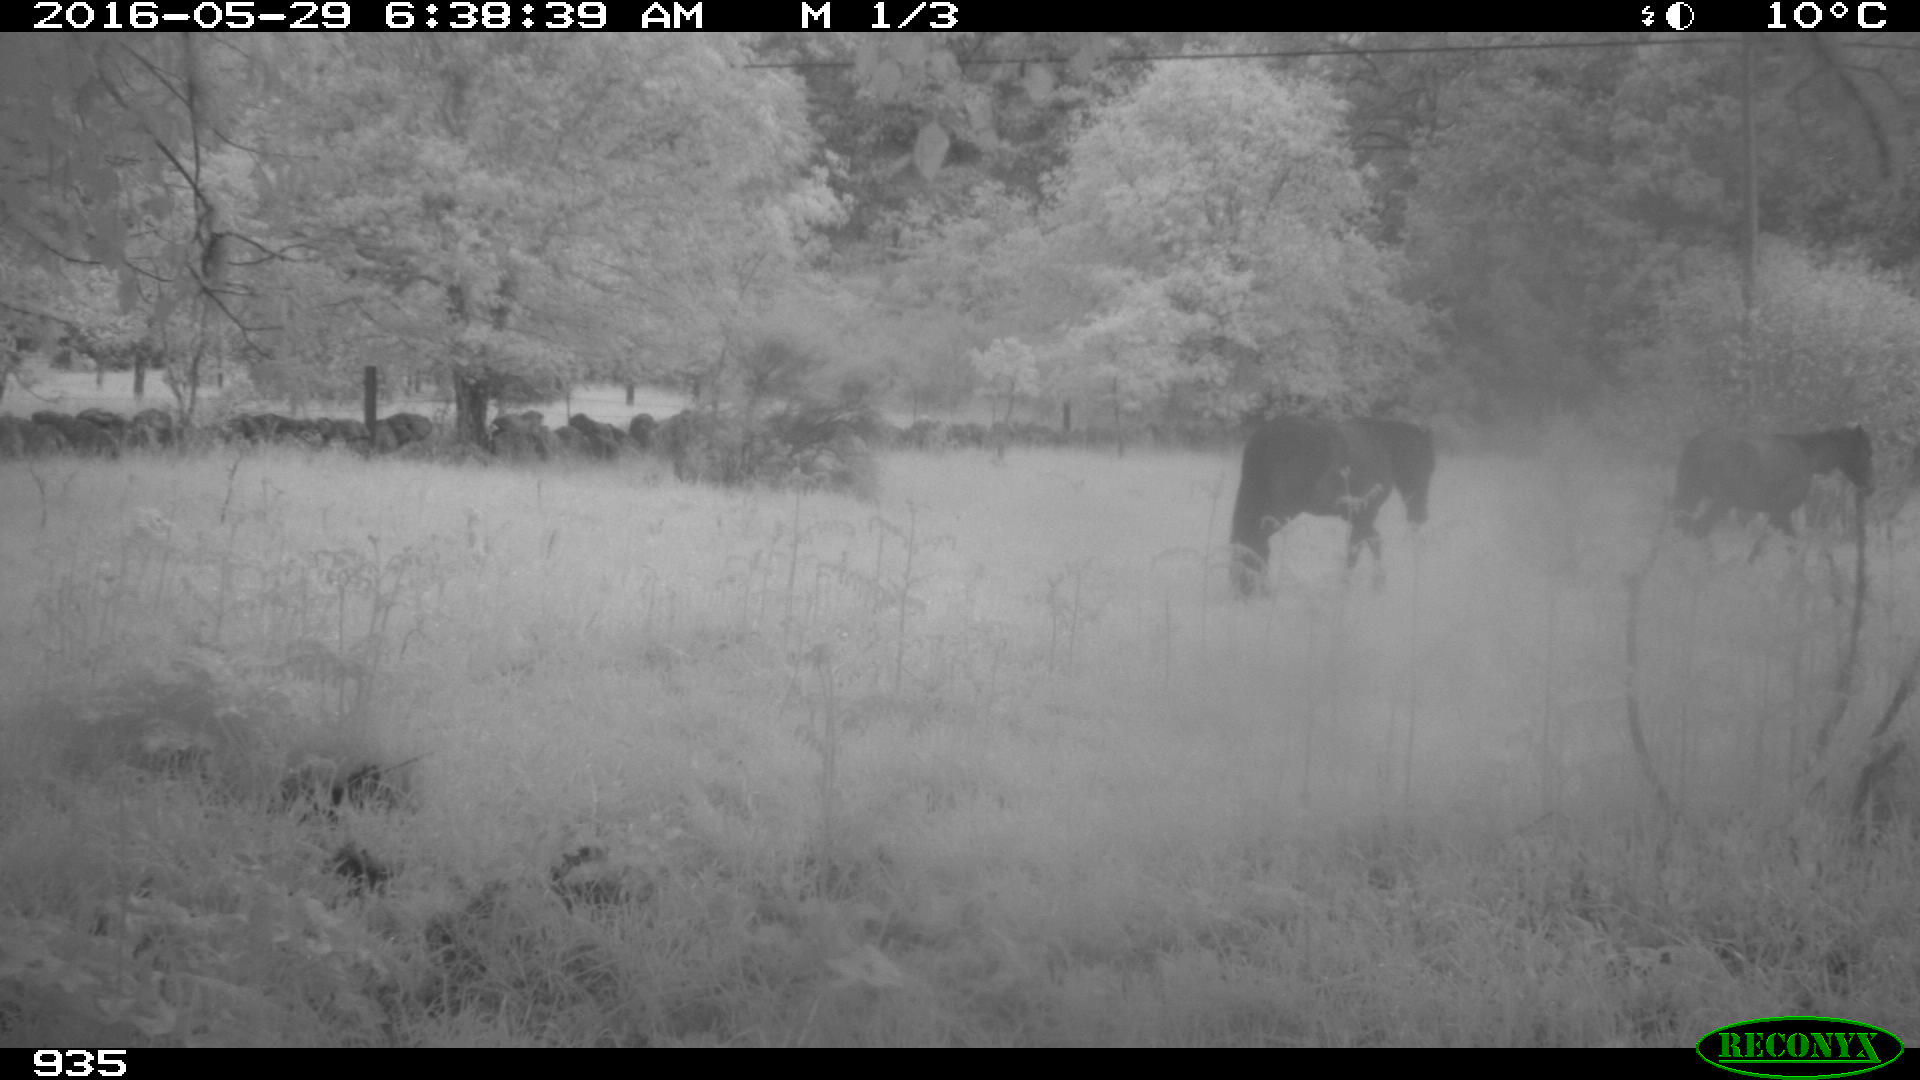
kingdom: Animalia
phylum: Chordata
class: Mammalia
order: Perissodactyla
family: Equidae
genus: Equus
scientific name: Equus caballus
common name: Horse
